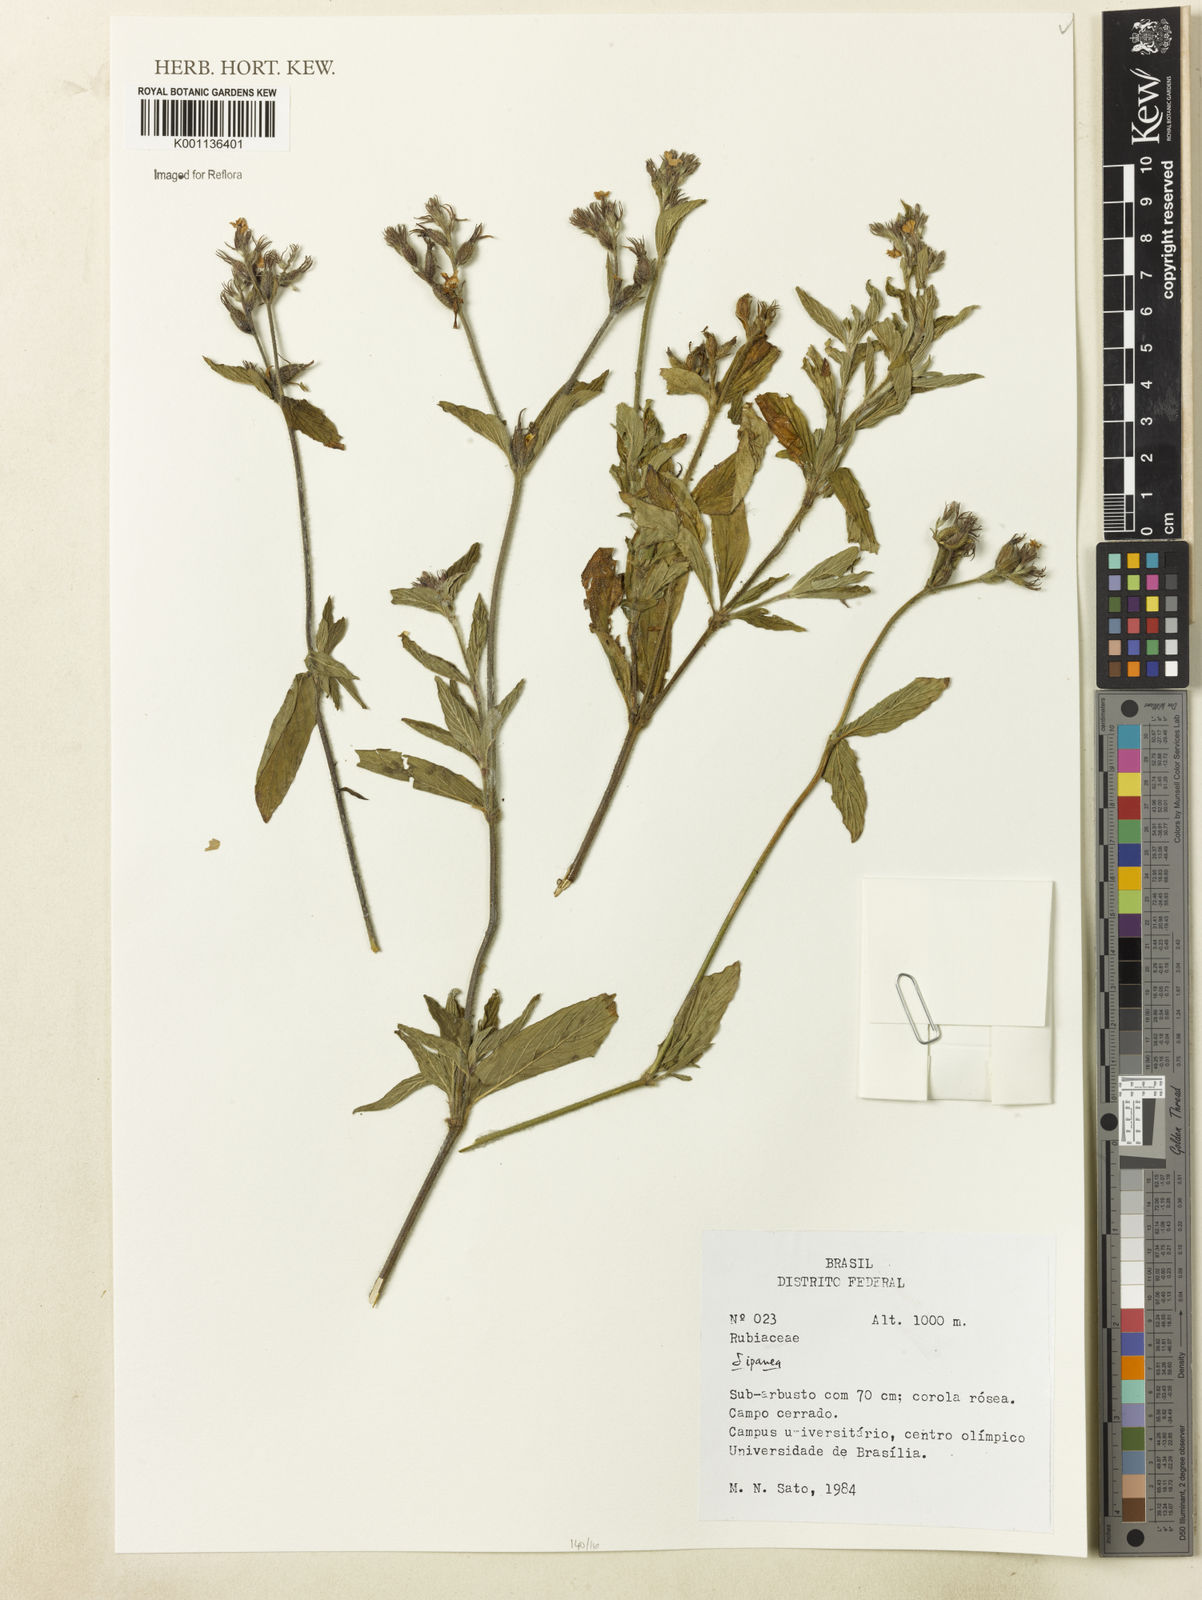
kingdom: Plantae
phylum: Tracheophyta
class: Magnoliopsida
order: Gentianales
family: Rubiaceae
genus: Sipanea
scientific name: Sipanea
